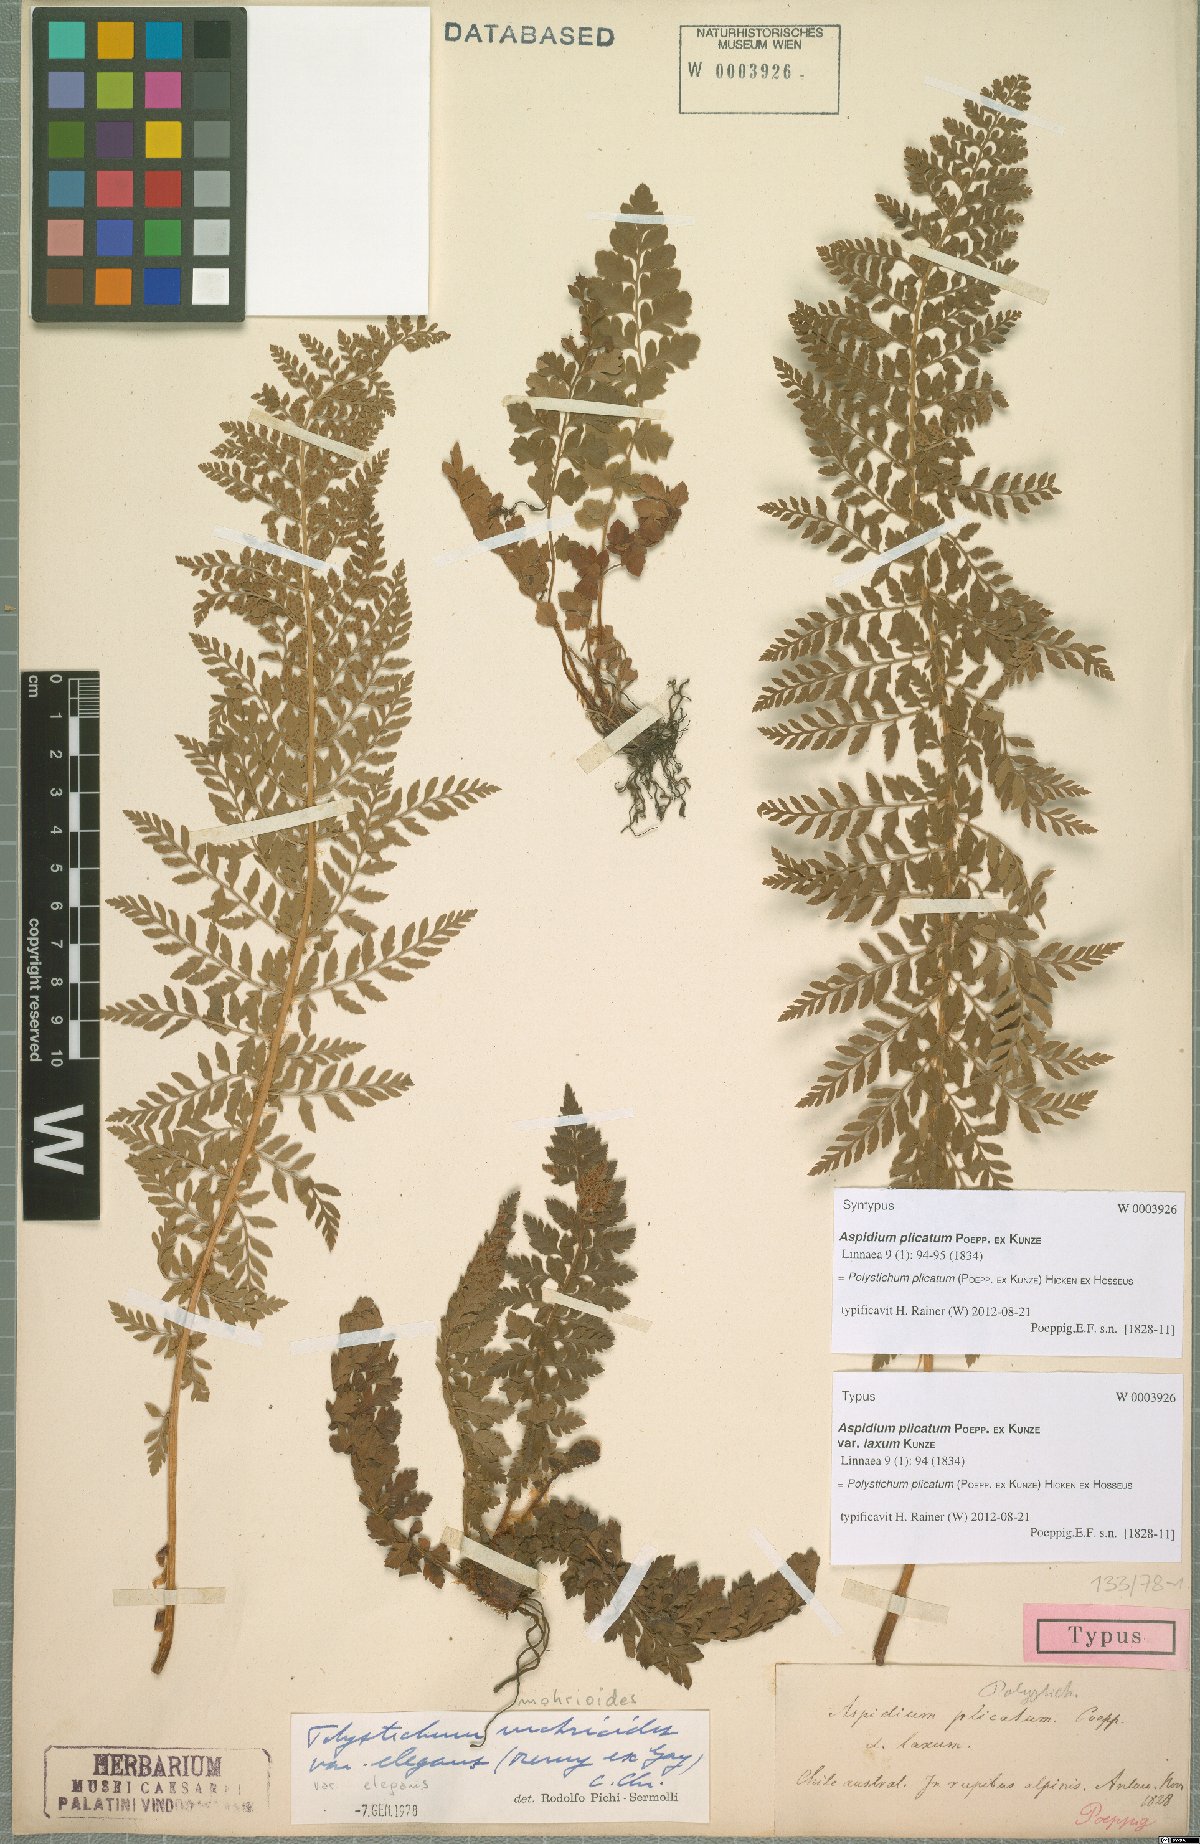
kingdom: Plantae
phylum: Tracheophyta
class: Polypodiopsida
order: Polypodiales
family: Dryopteridaceae
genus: Polystichum
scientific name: Polystichum plicatum
